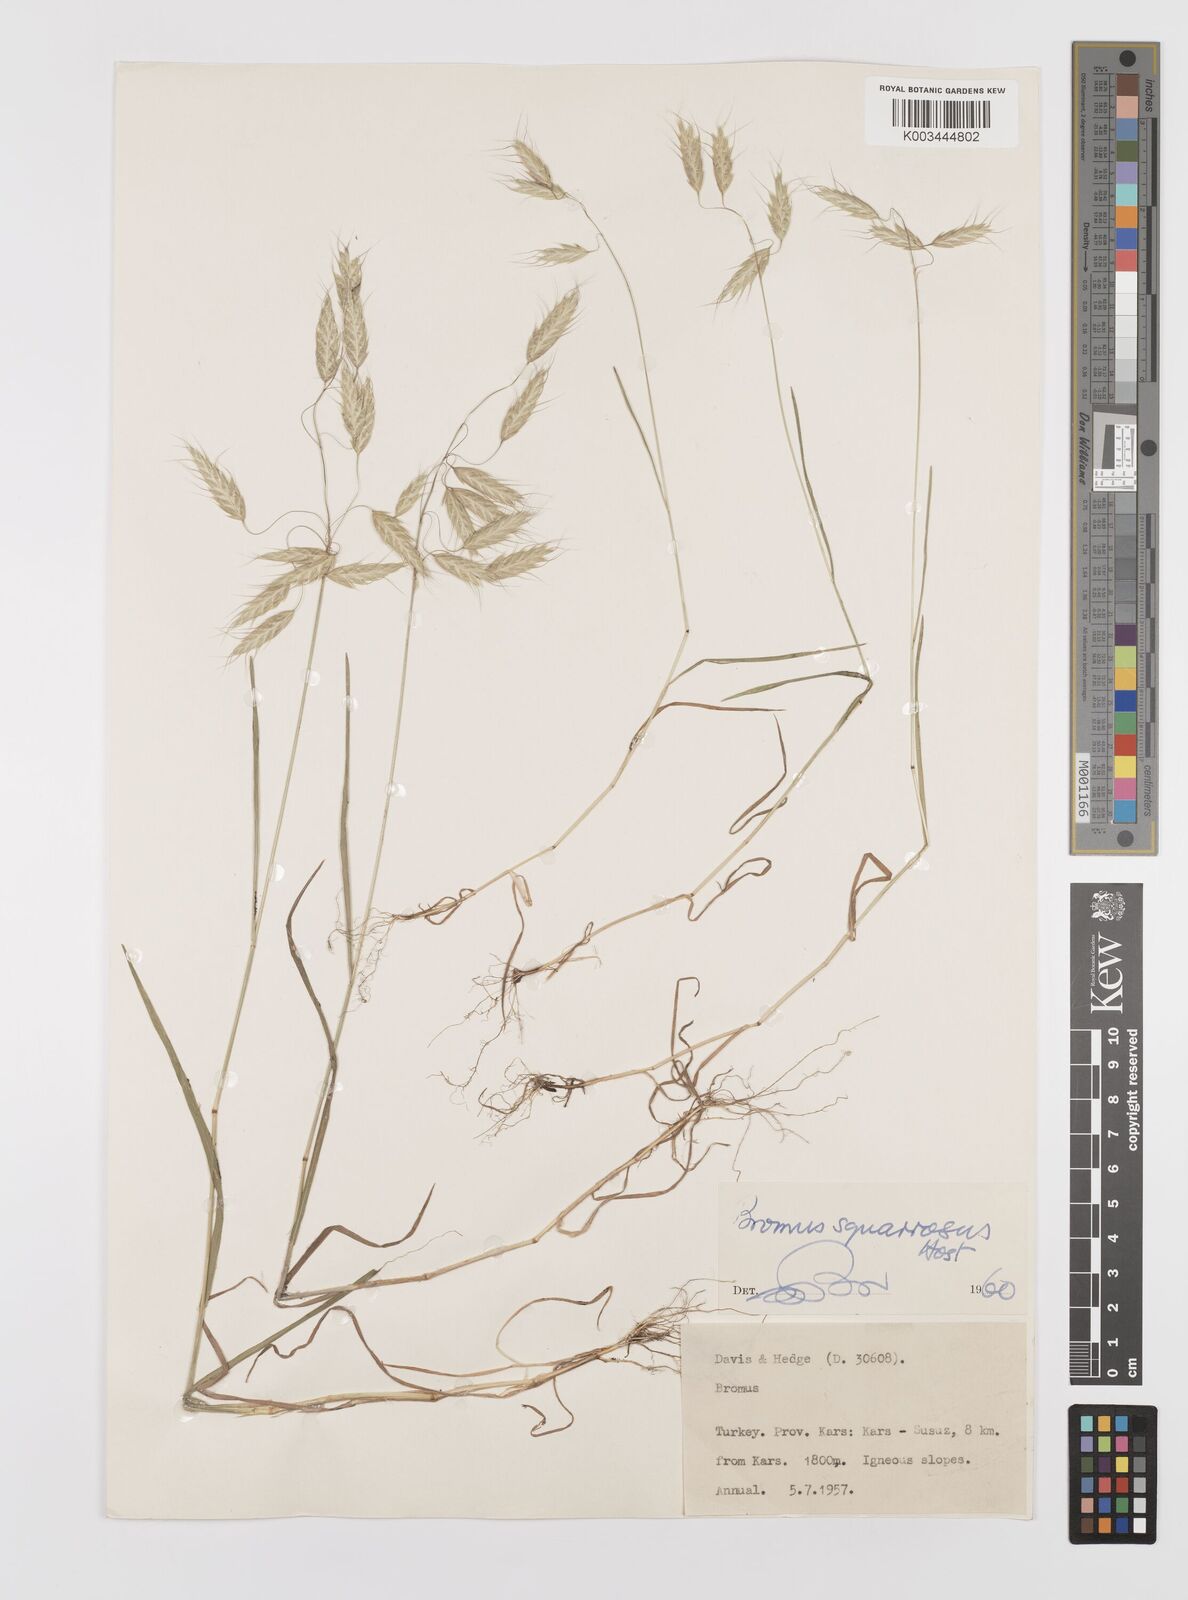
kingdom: Plantae
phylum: Tracheophyta
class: Liliopsida
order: Poales
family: Poaceae
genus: Bromus
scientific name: Bromus squarrosus
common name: Corn brome
